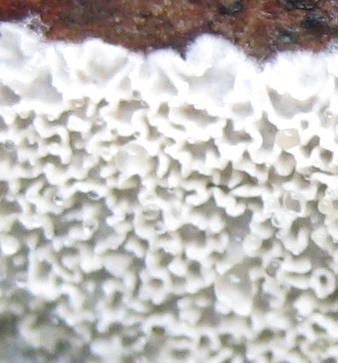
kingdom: Fungi
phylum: Basidiomycota
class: Agaricomycetes
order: Polyporales
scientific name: Polyporales
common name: poresvampordenen
